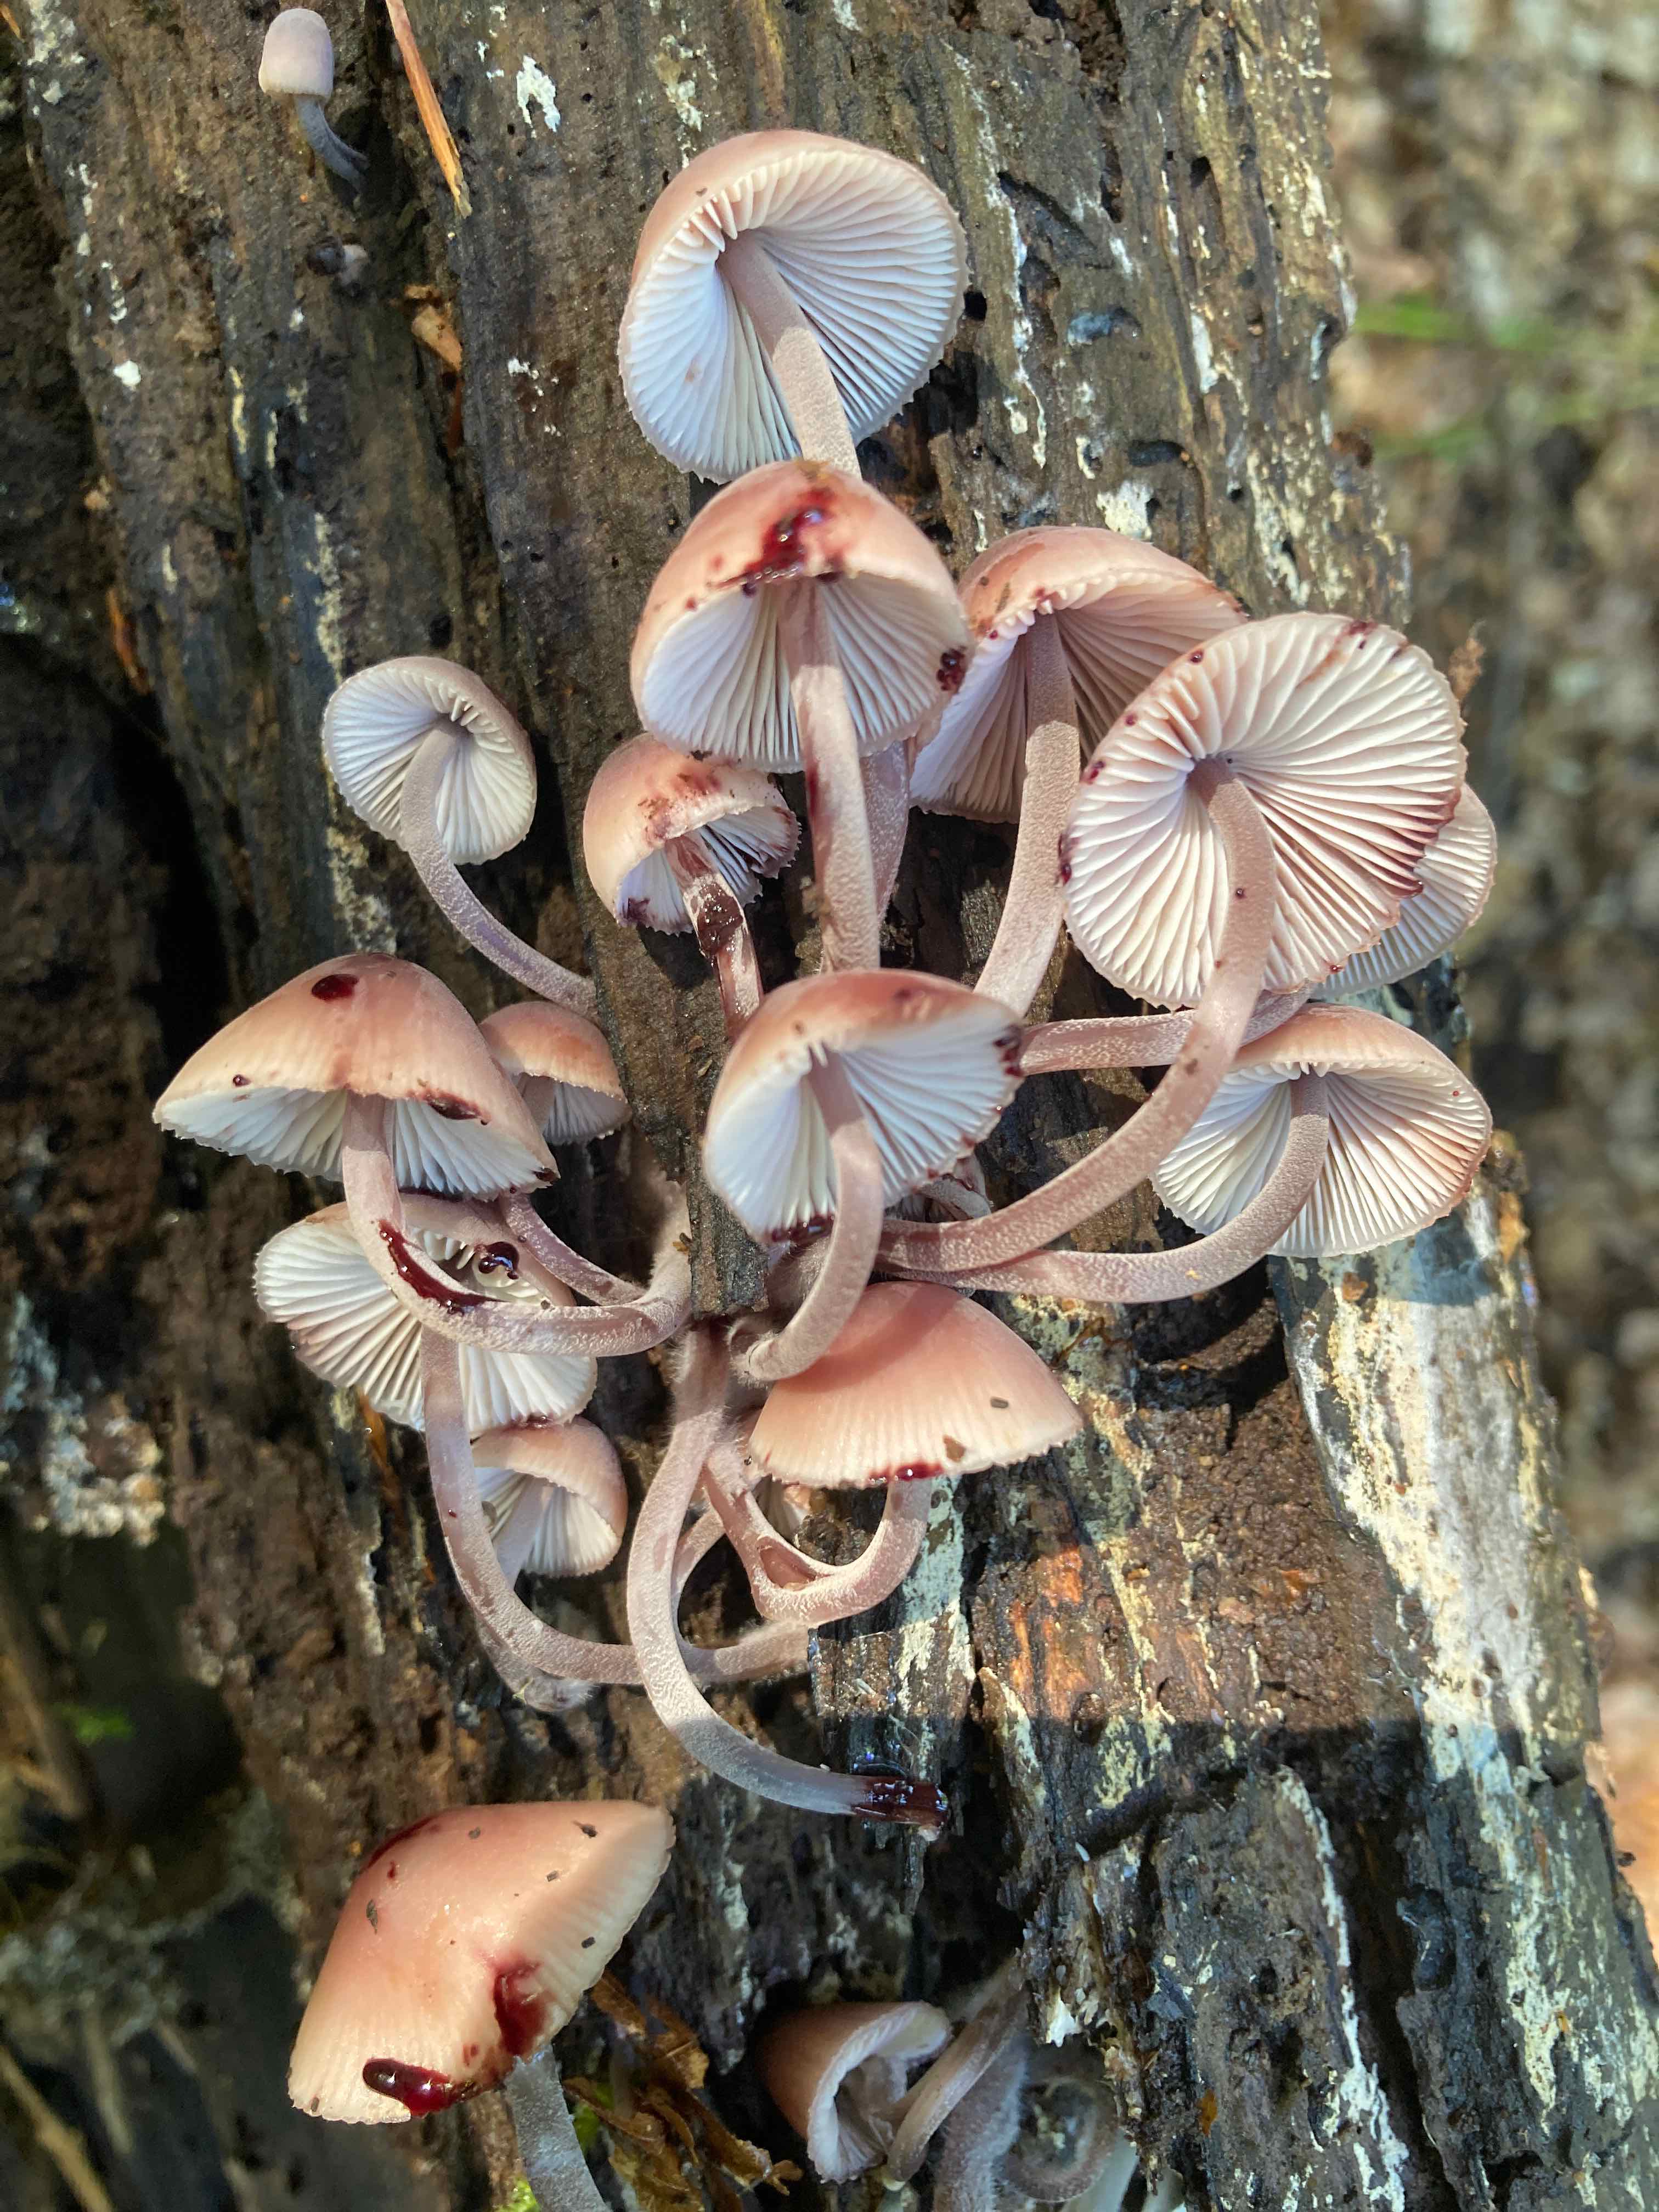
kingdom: Fungi
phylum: Basidiomycota
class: Agaricomycetes
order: Agaricales
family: Mycenaceae
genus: Mycena
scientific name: Mycena haematopus
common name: blødende huesvamp
